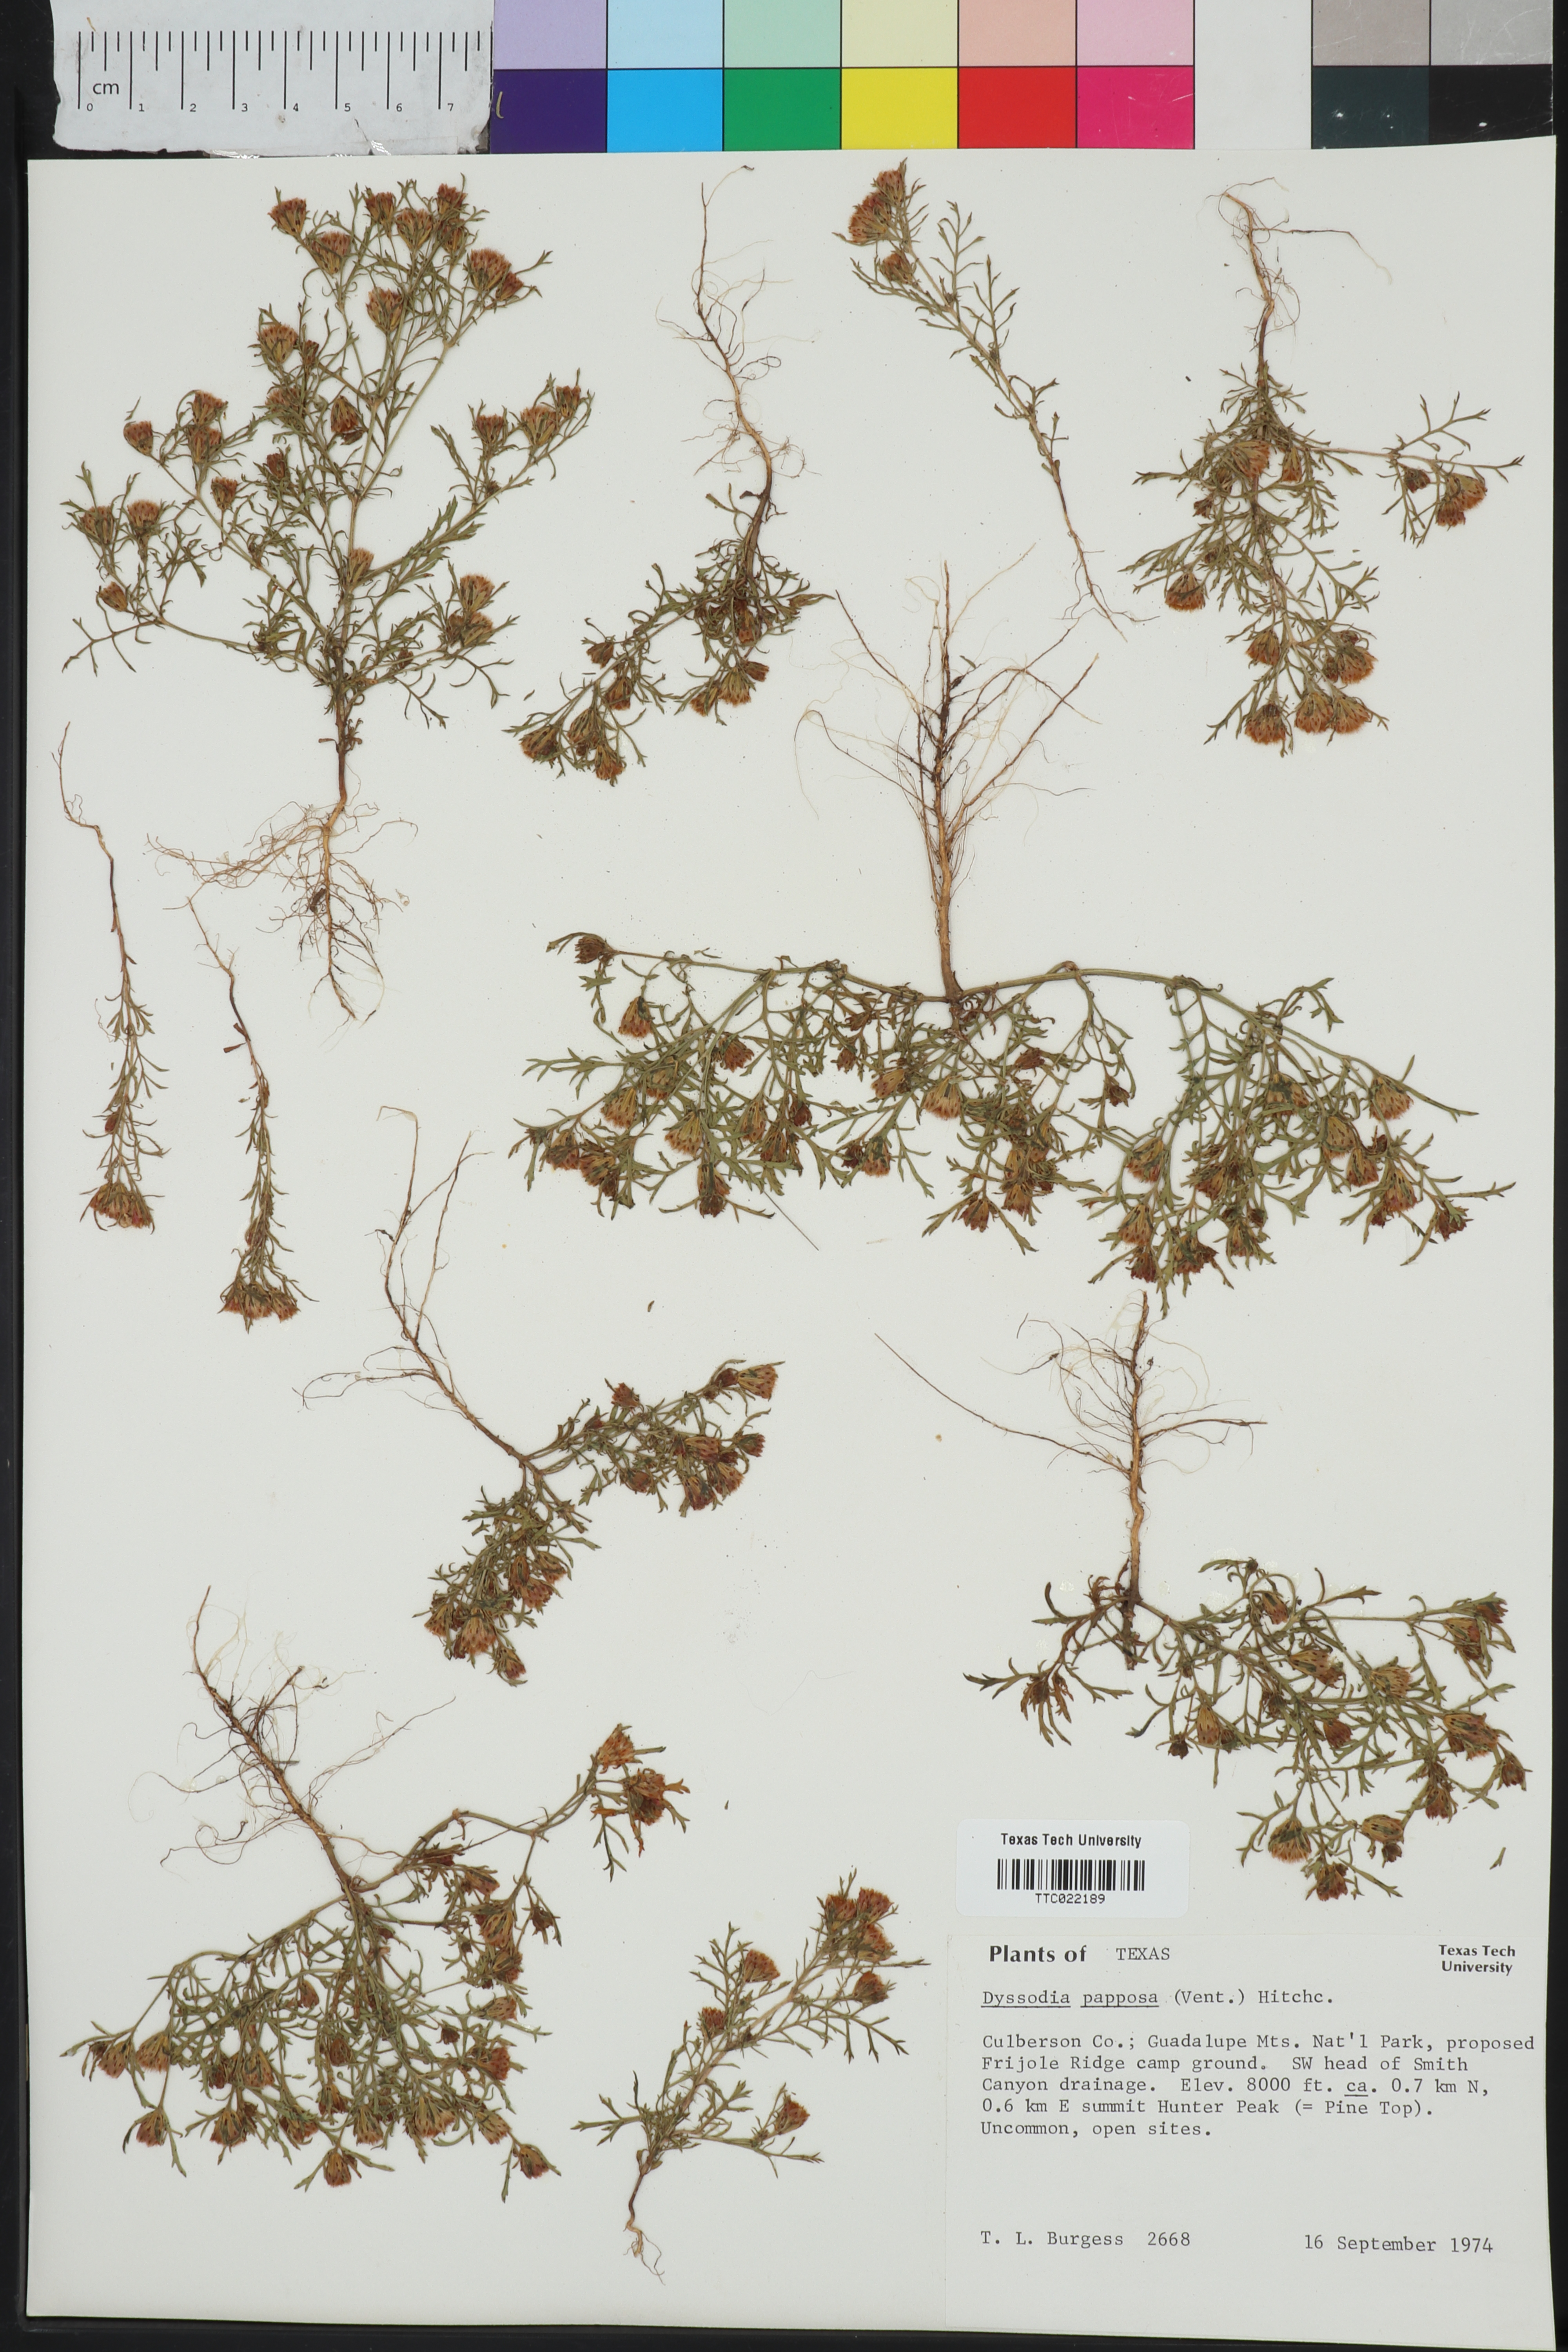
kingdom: Plantae
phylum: Tracheophyta
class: Magnoliopsida
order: Asterales
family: Asteraceae
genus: Dyssodia
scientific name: Dyssodia papposa
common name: Dogweed
